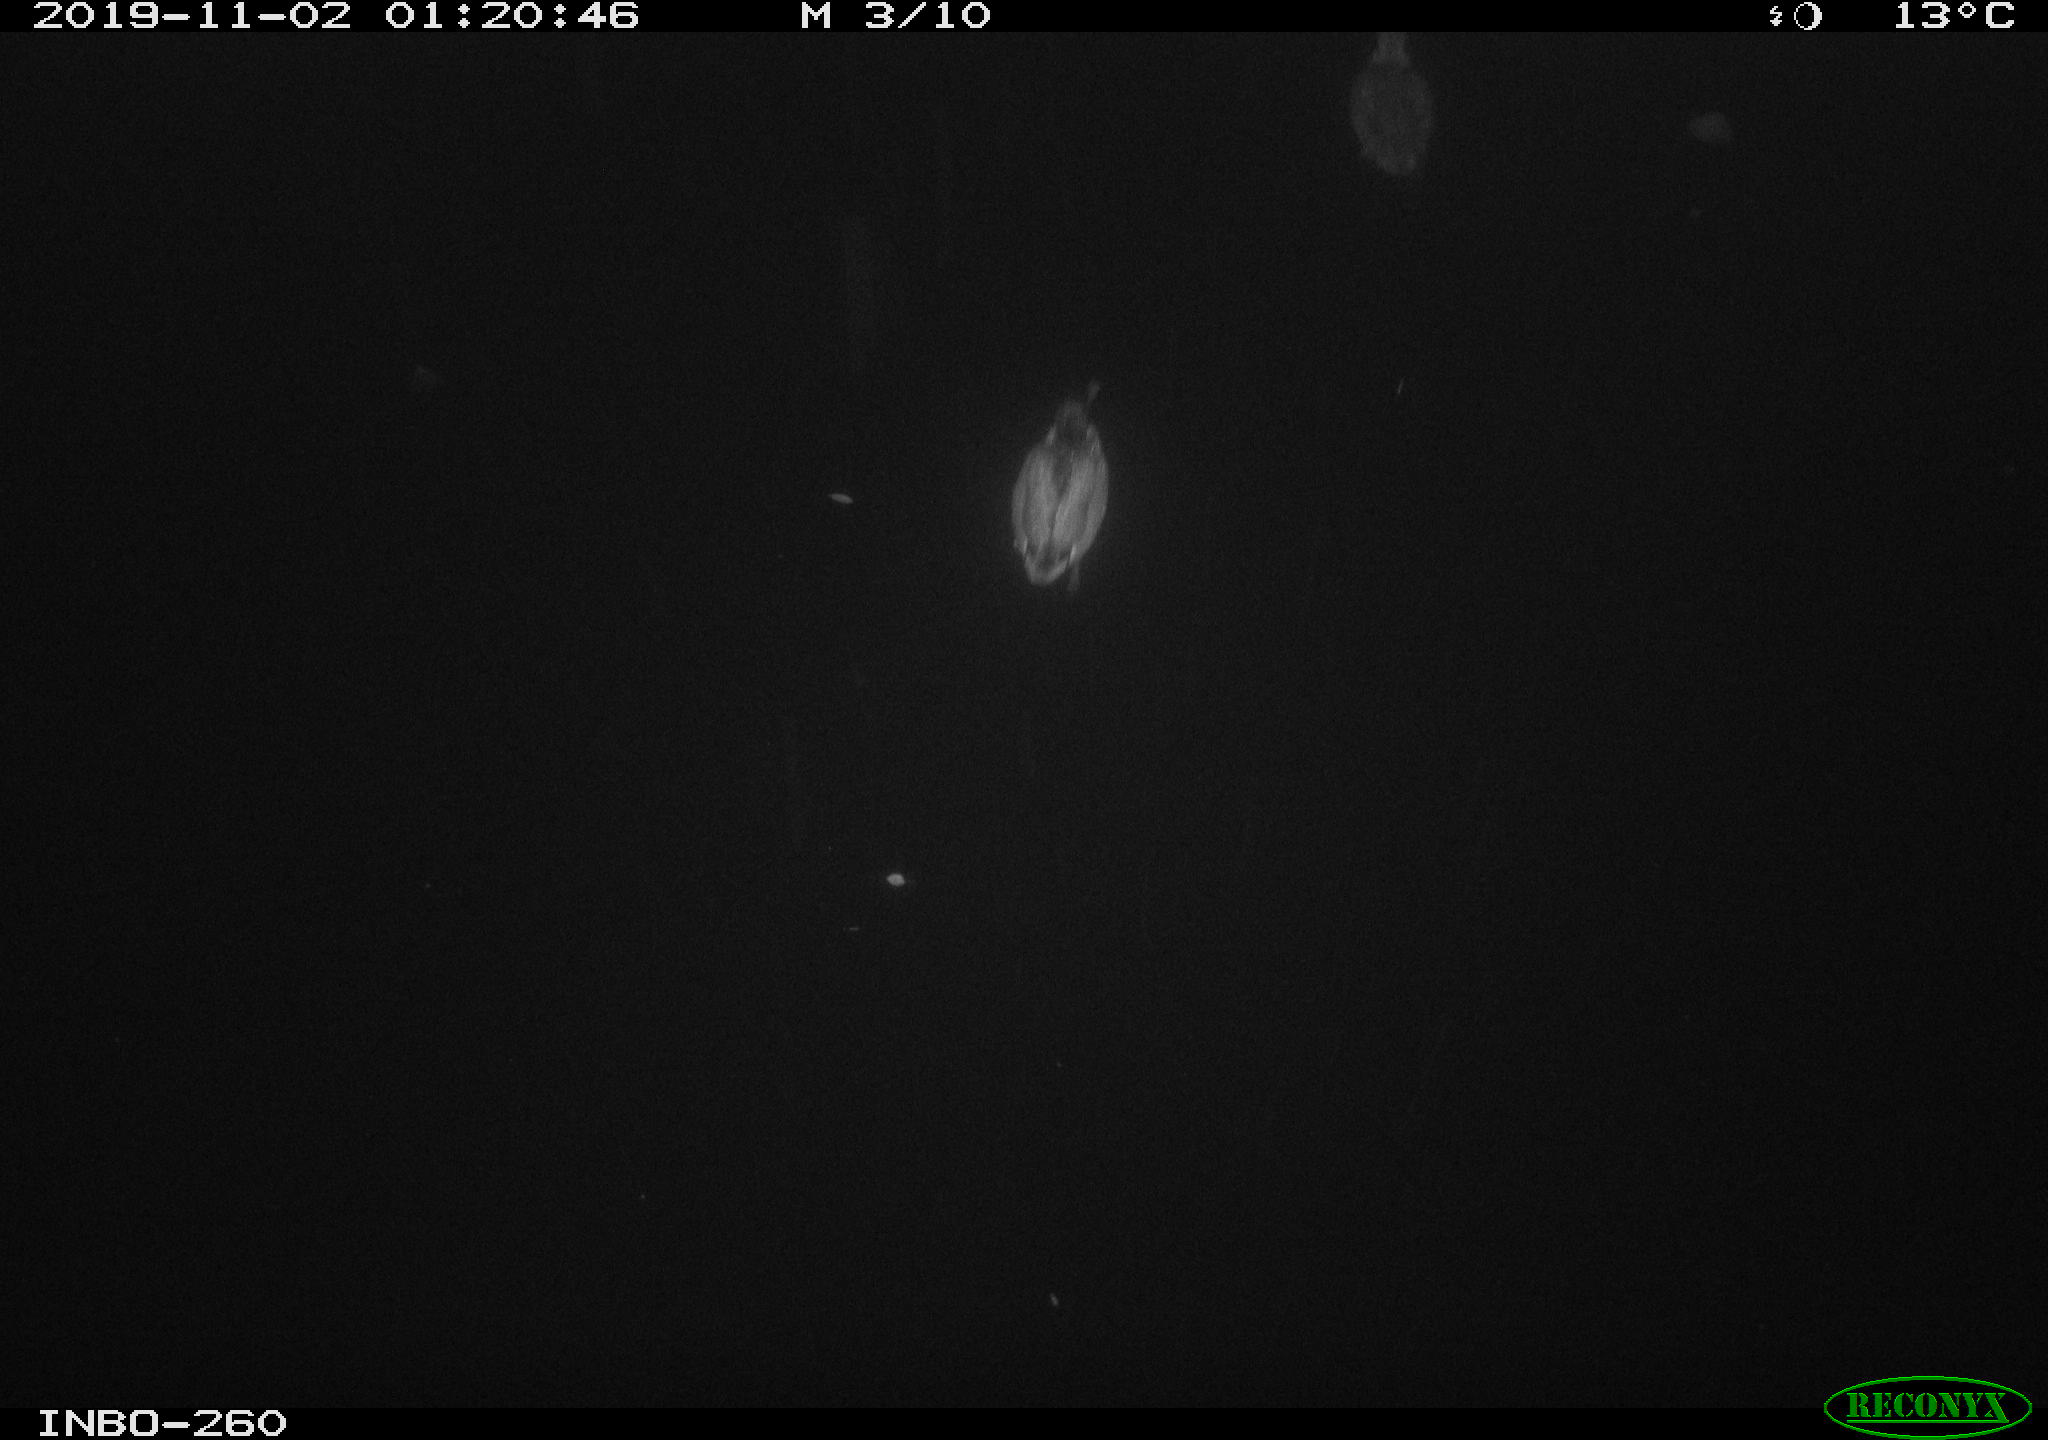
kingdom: Animalia
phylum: Chordata
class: Aves
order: Anseriformes
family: Anatidae
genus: Anas
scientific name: Anas platyrhynchos
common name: Mallard
